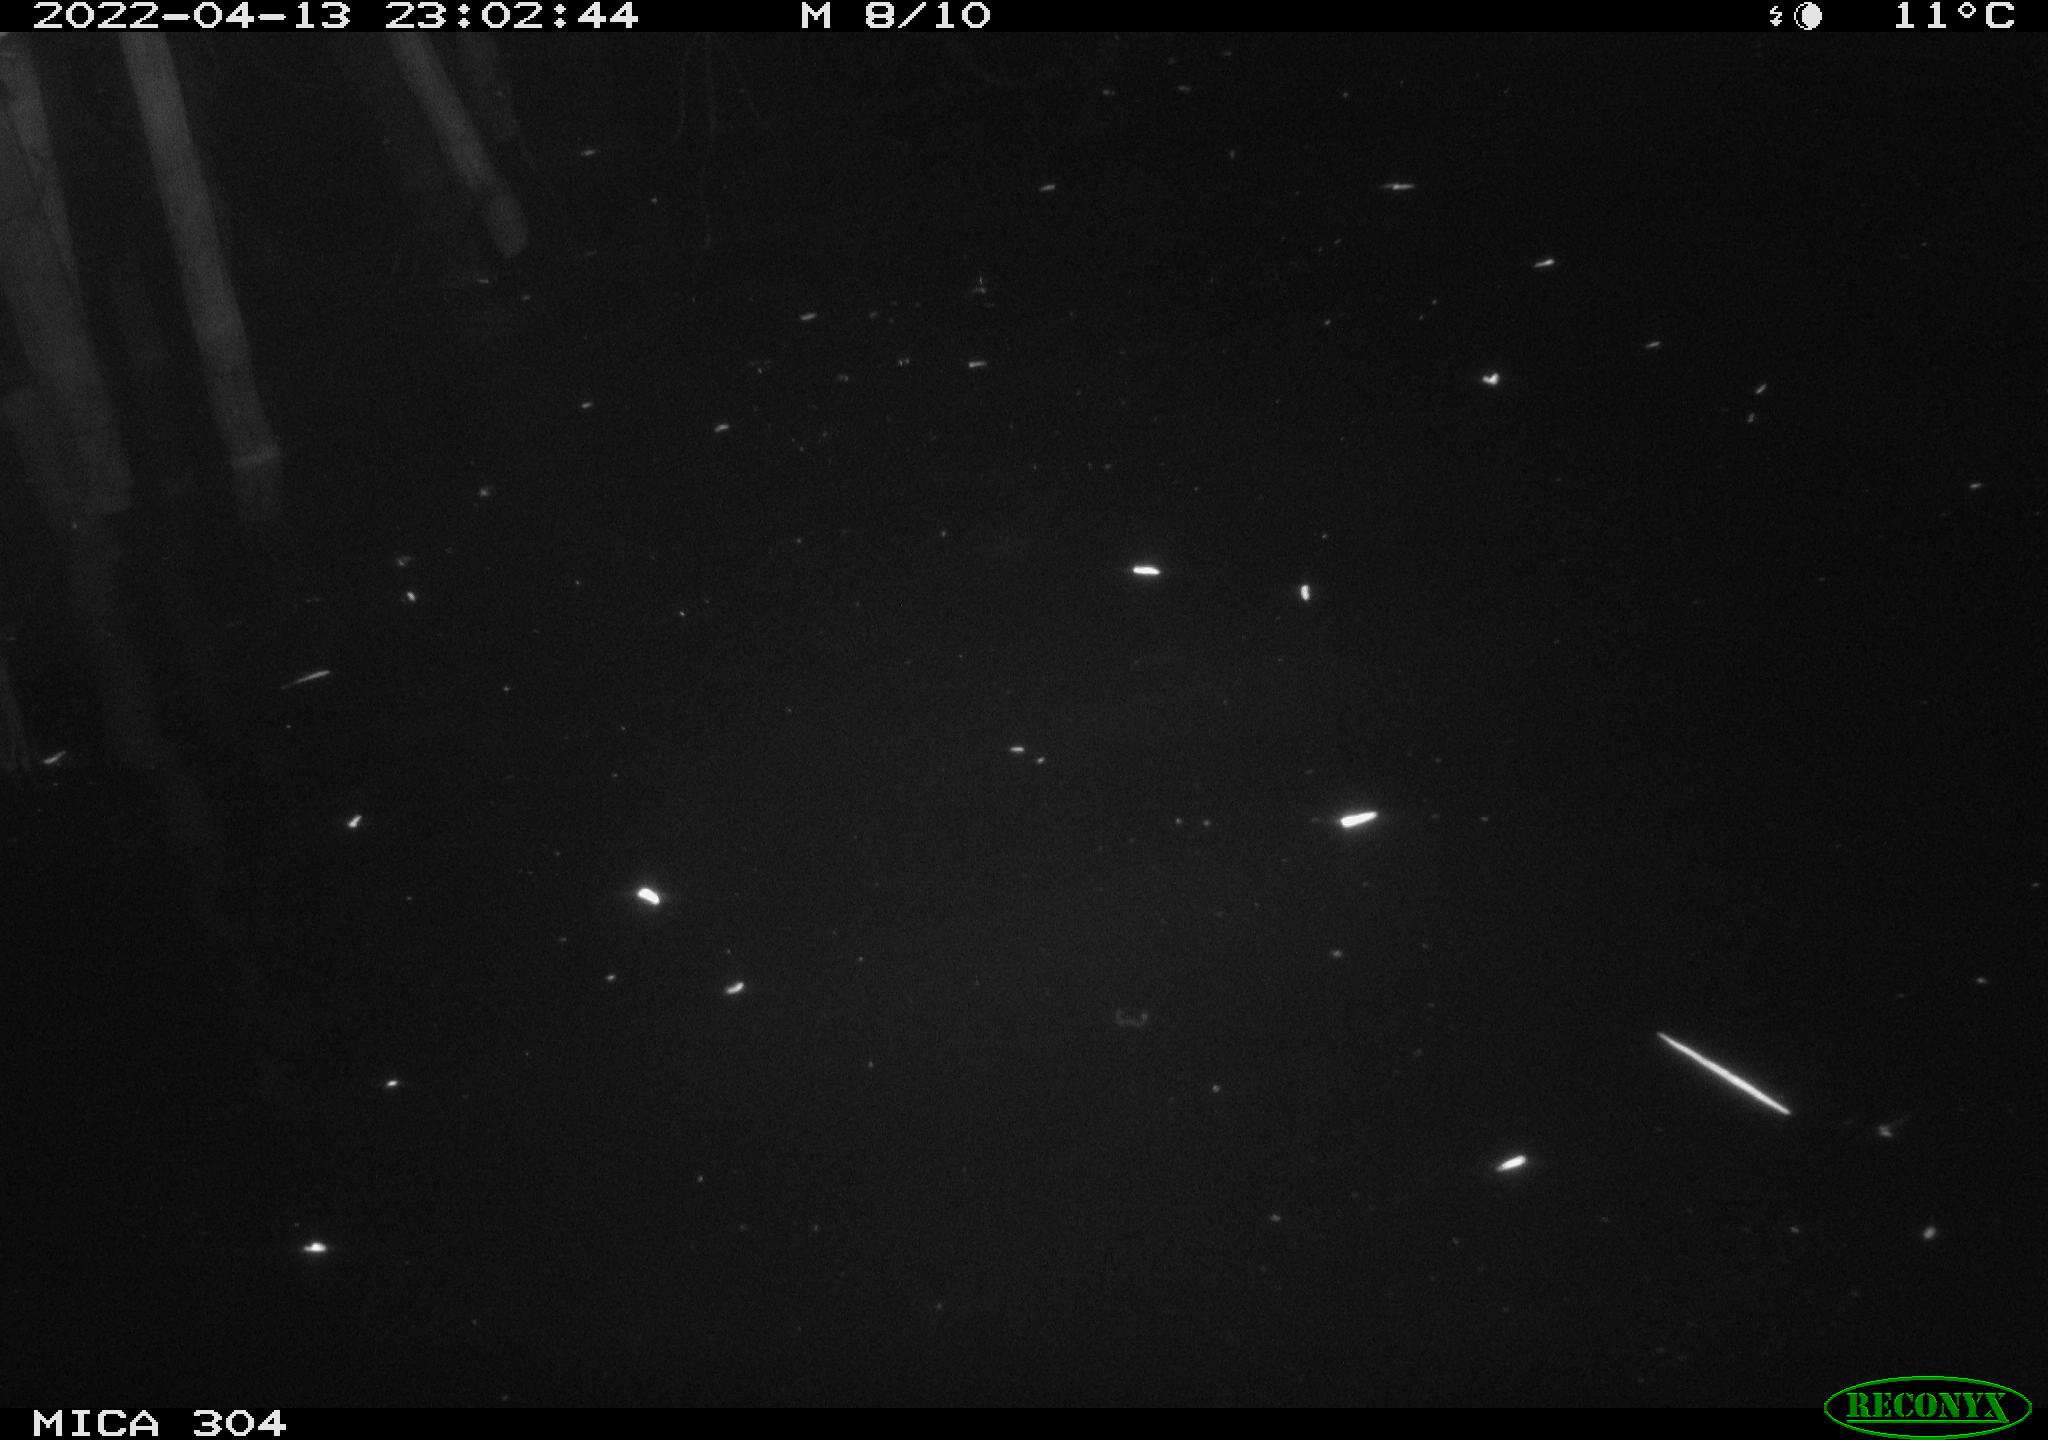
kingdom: Animalia
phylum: Chordata
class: Aves
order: Anseriformes
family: Anatidae
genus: Anas
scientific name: Anas platyrhynchos
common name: Mallard
